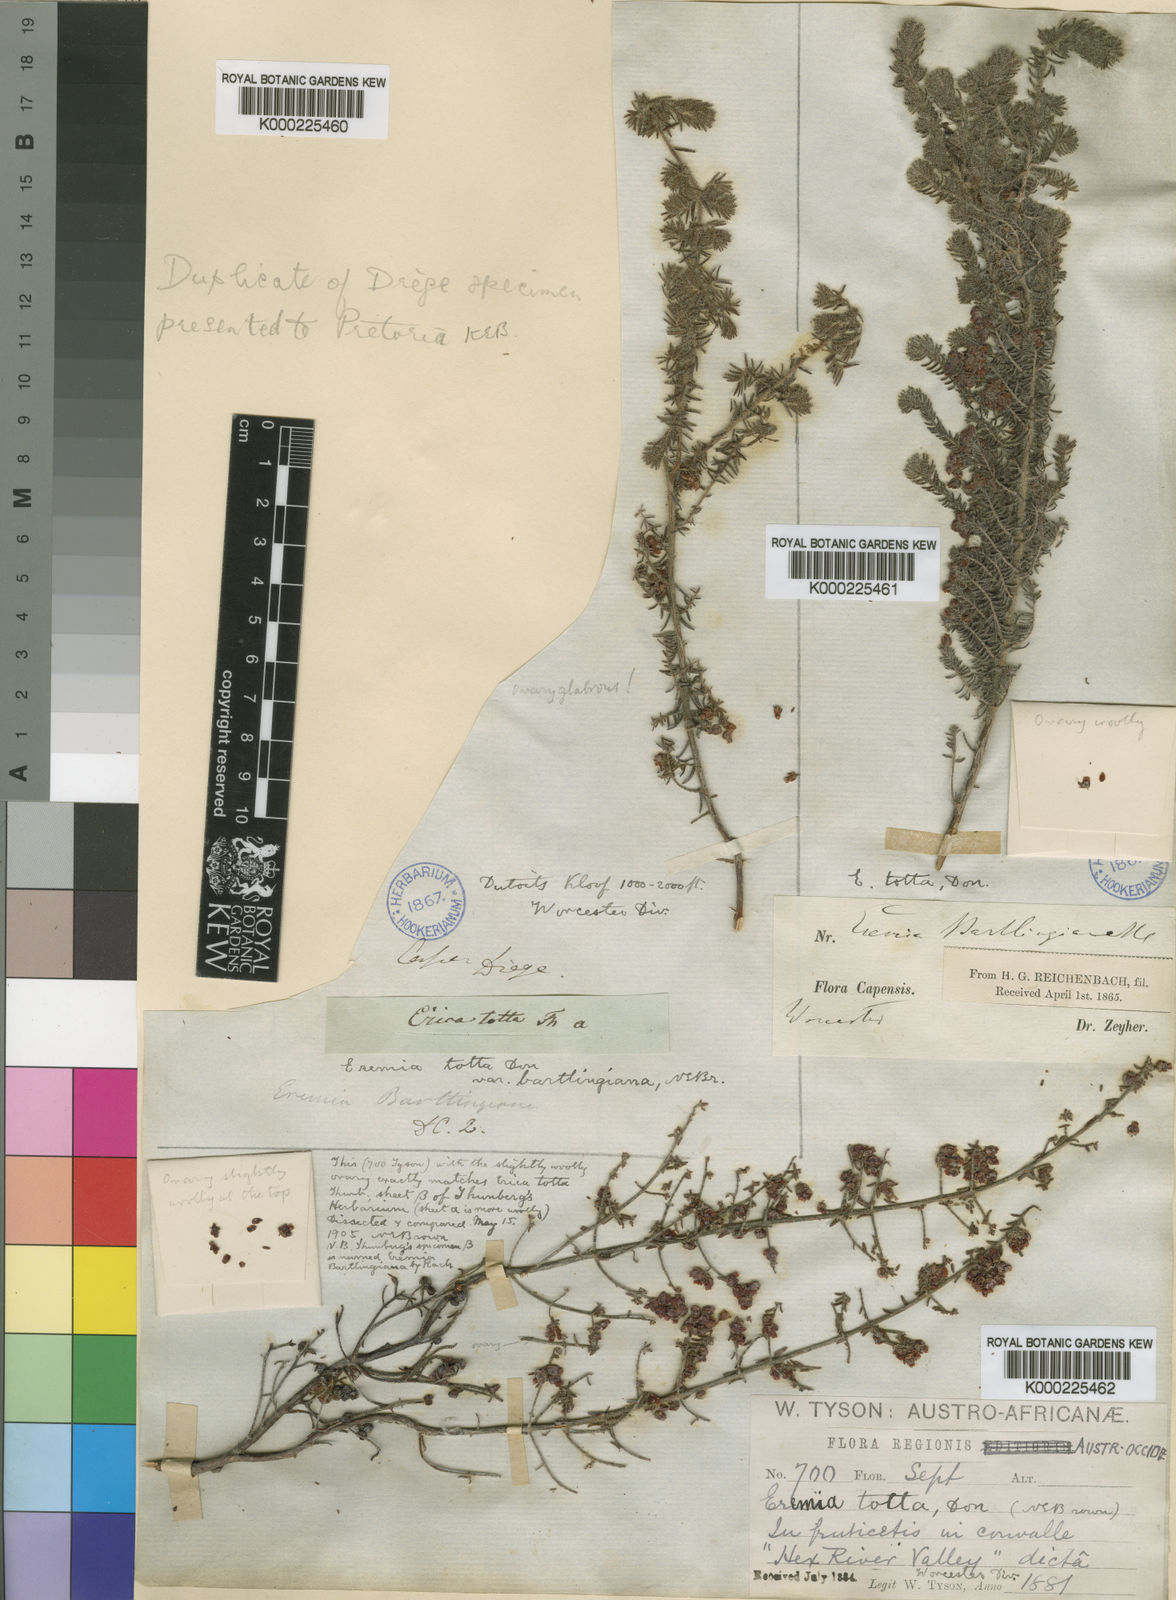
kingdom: Plantae
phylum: Tracheophyta
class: Magnoliopsida
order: Ericales
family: Ericaceae
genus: Erica
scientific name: Erica totta
